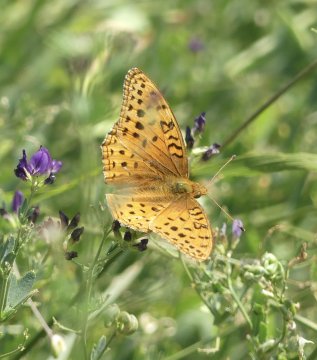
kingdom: Animalia
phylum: Arthropoda
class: Insecta
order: Lepidoptera
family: Nymphalidae
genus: Speyeria
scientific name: Speyeria aphrodite
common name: Aphrodite Fritillary
